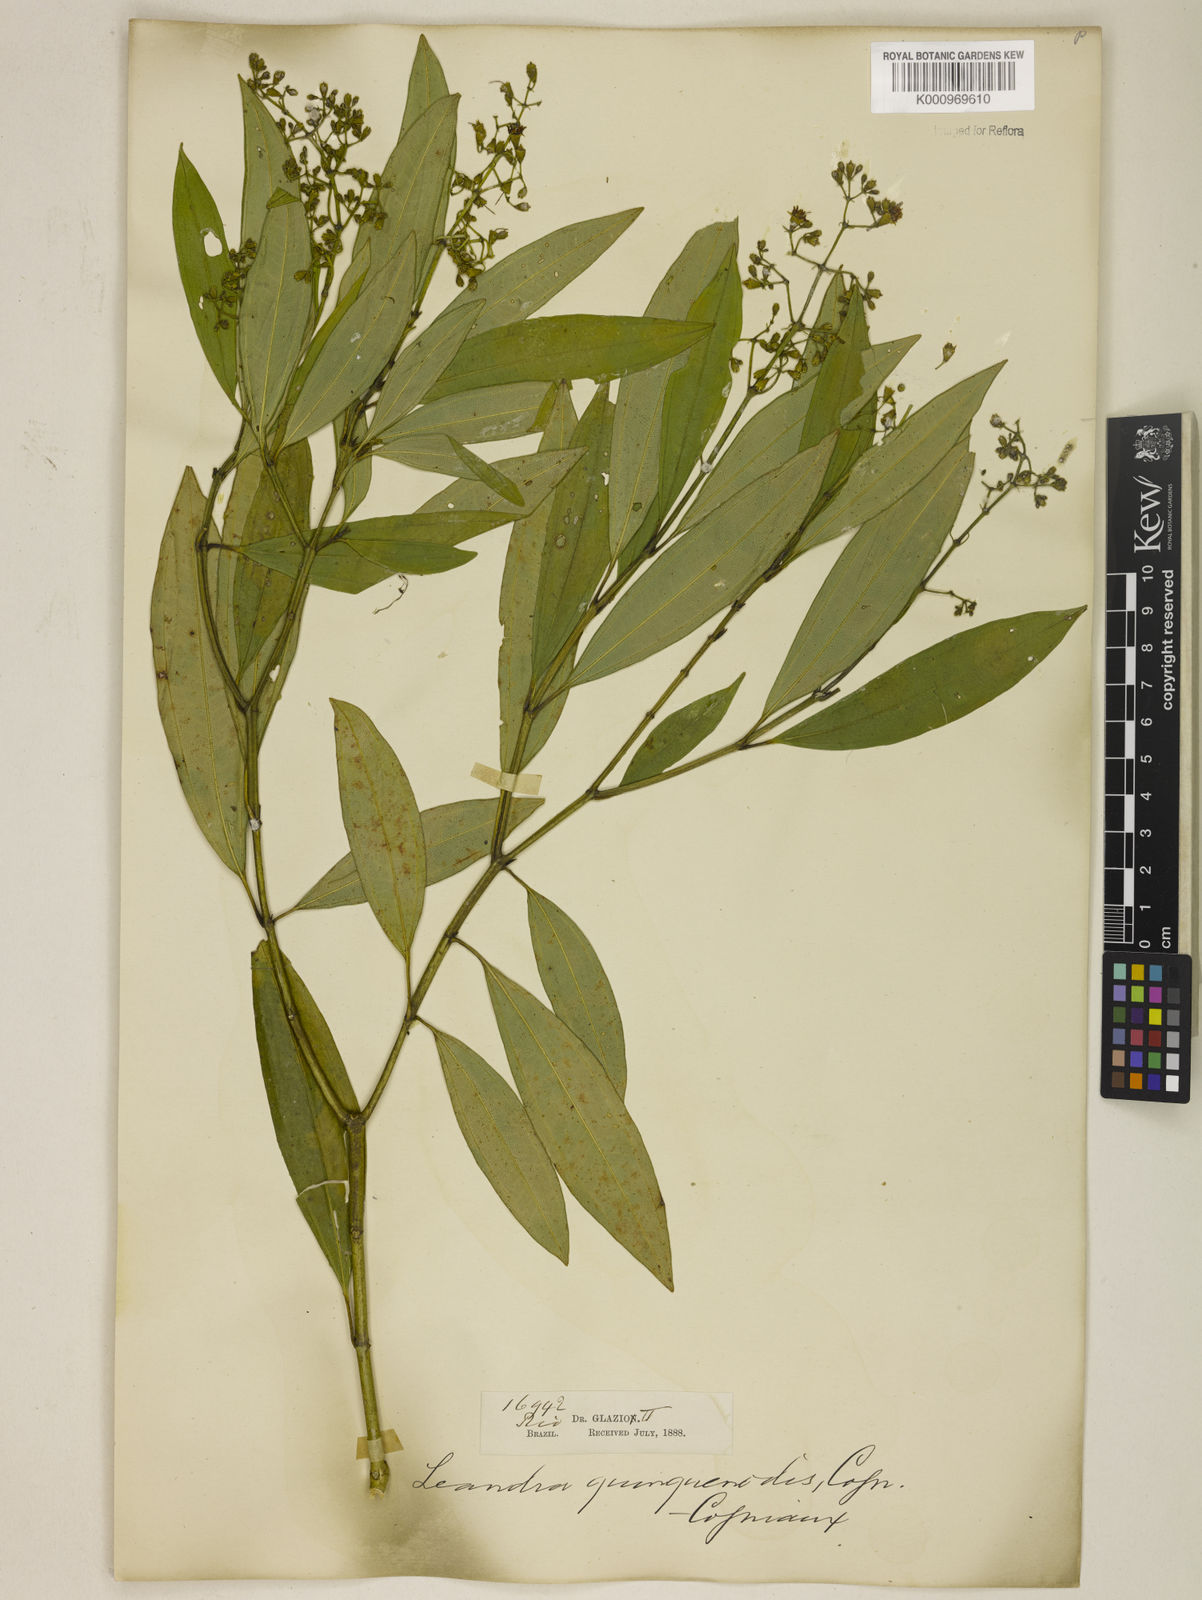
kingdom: Plantae
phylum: Tracheophyta
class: Magnoliopsida
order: Myrtales
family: Melastomataceae
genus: Miconia
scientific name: Miconia quinquenodis
